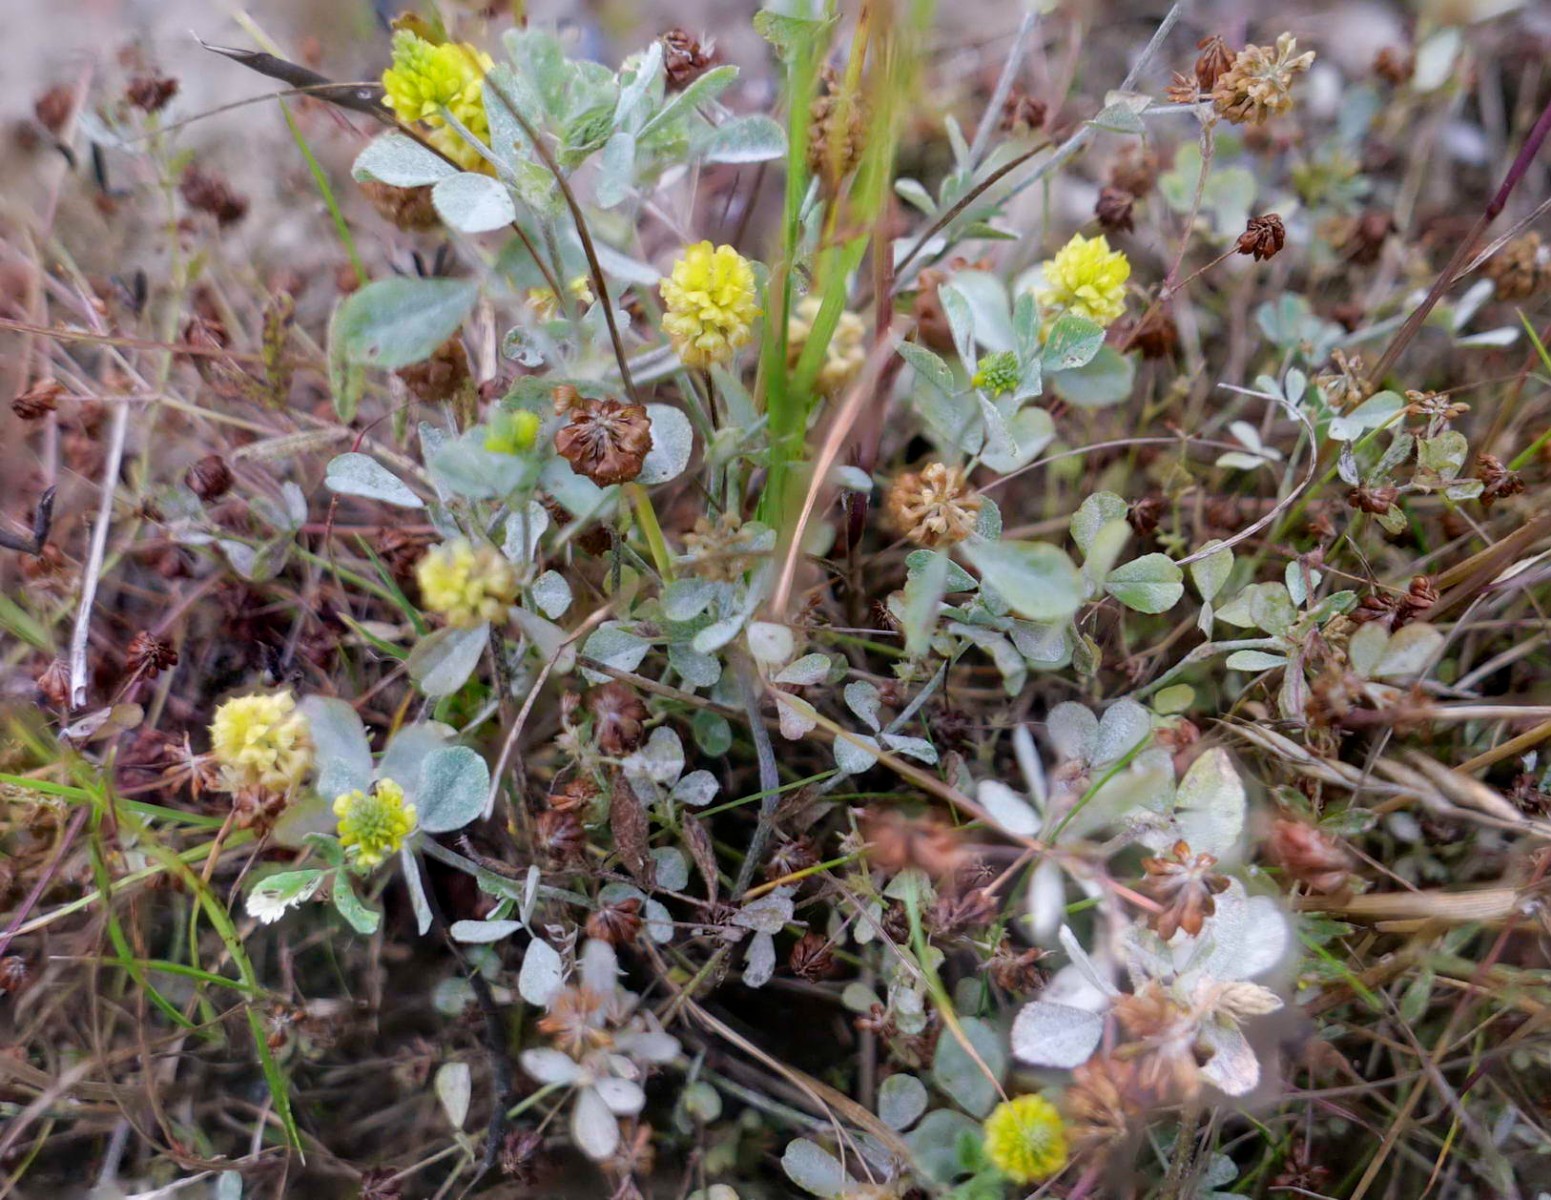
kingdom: Fungi
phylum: Ascomycota
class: Leotiomycetes
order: Helotiales
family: Erysiphaceae
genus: Erysiphe
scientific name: Erysiphe trifoliorum
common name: kløver-meldug
